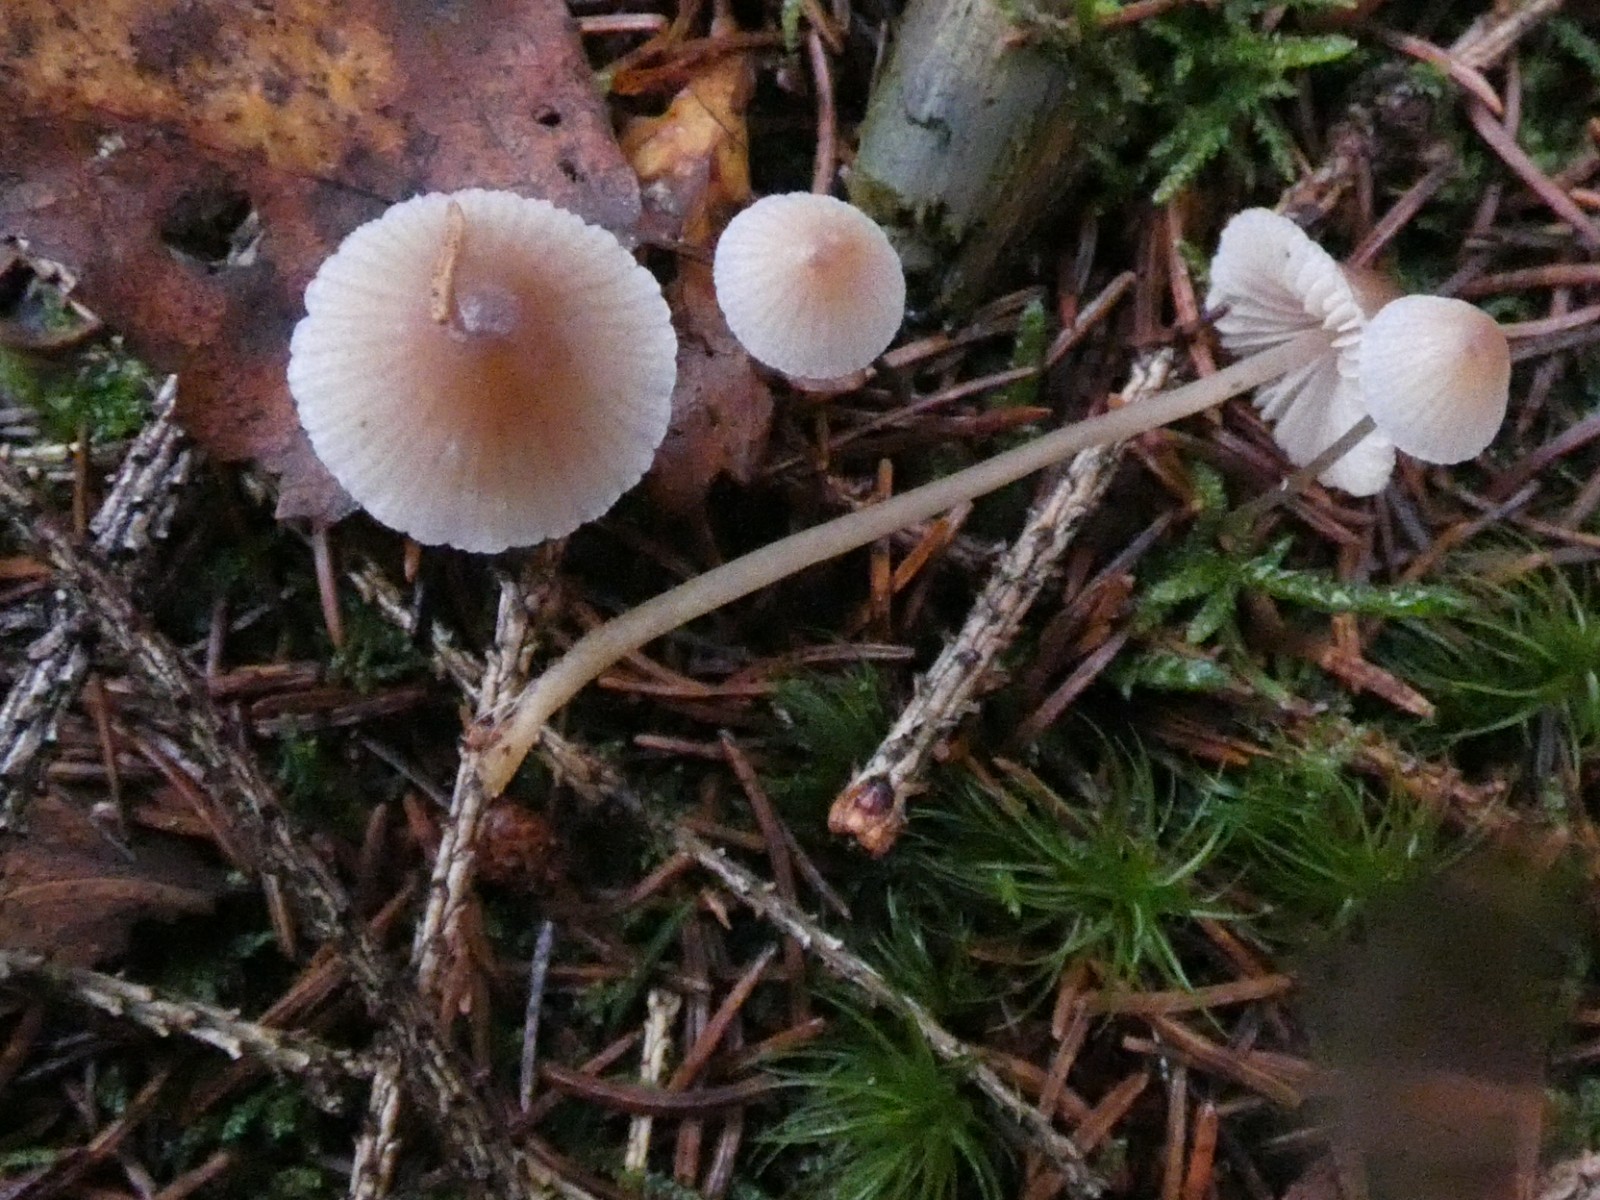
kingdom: Fungi
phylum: Basidiomycota
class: Agaricomycetes
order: Agaricales
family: Mycenaceae
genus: Mycena
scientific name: Mycena metata
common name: rødlig huesvamp
